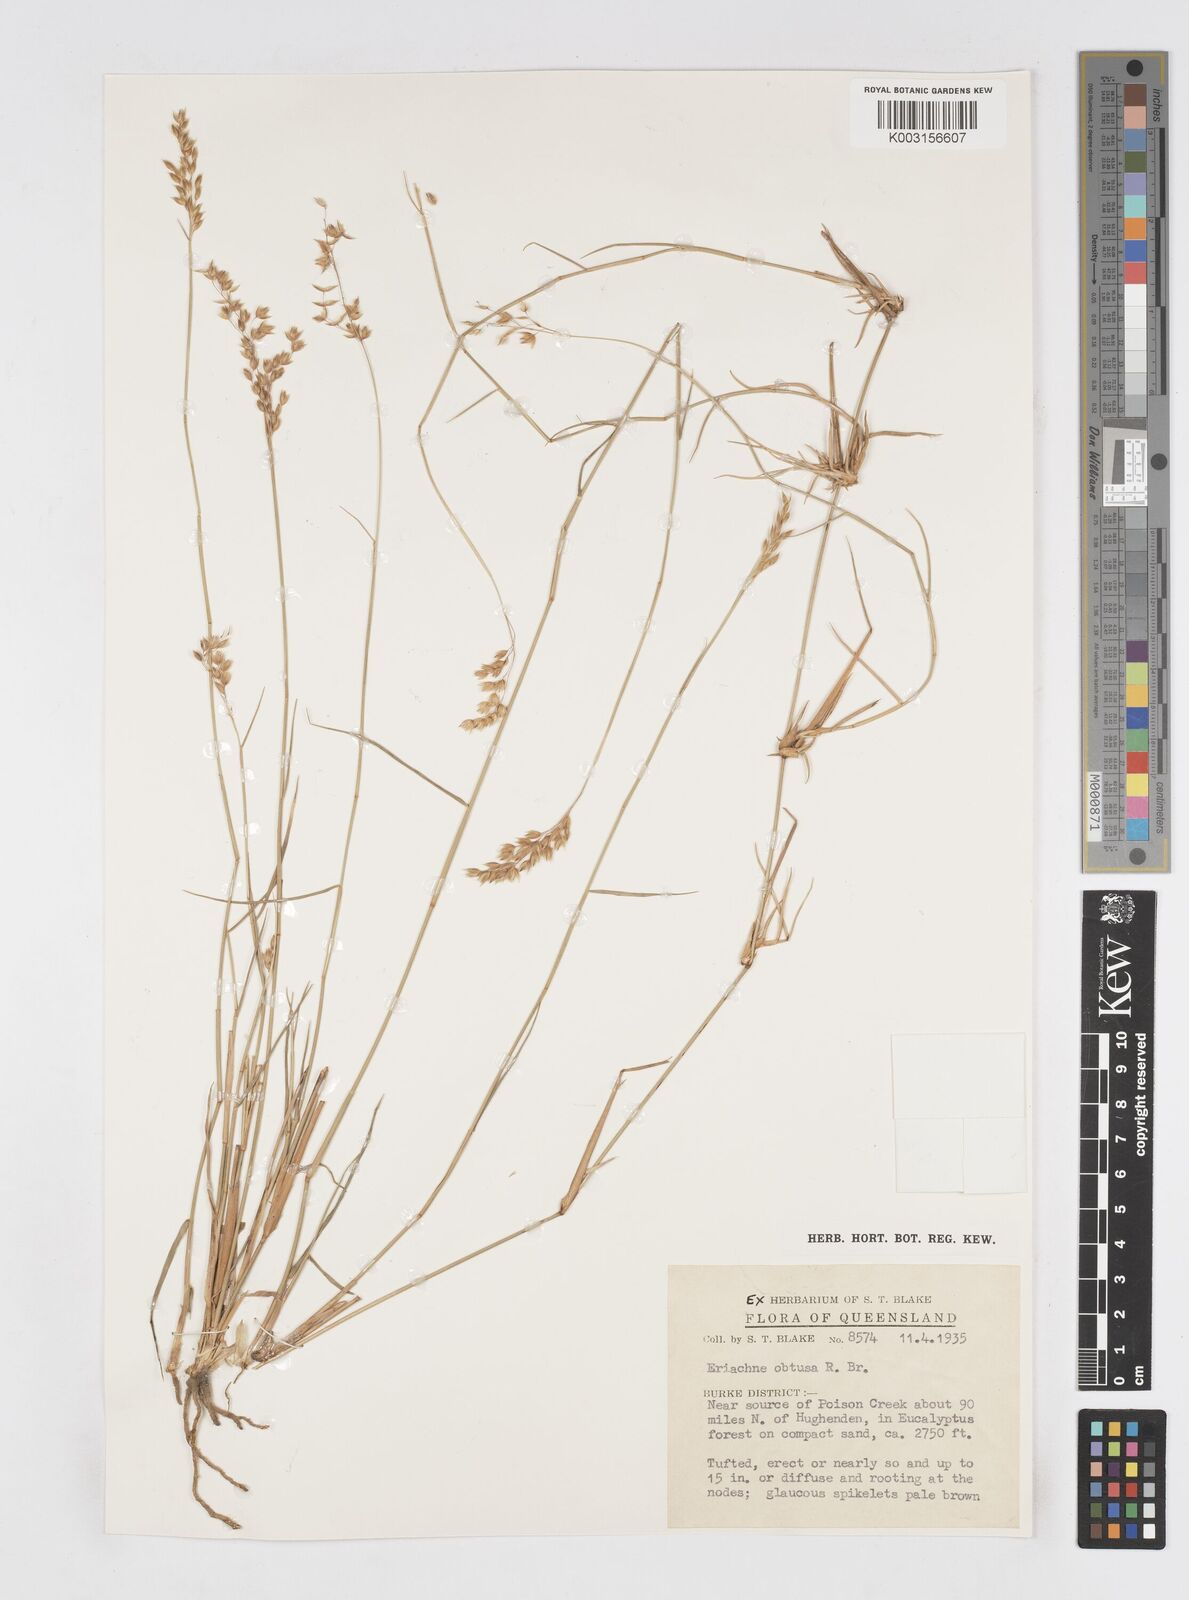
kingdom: Plantae
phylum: Tracheophyta
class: Liliopsida
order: Poales
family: Poaceae
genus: Eriachne
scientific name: Eriachne obtusa
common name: Northern wanderrie grass
